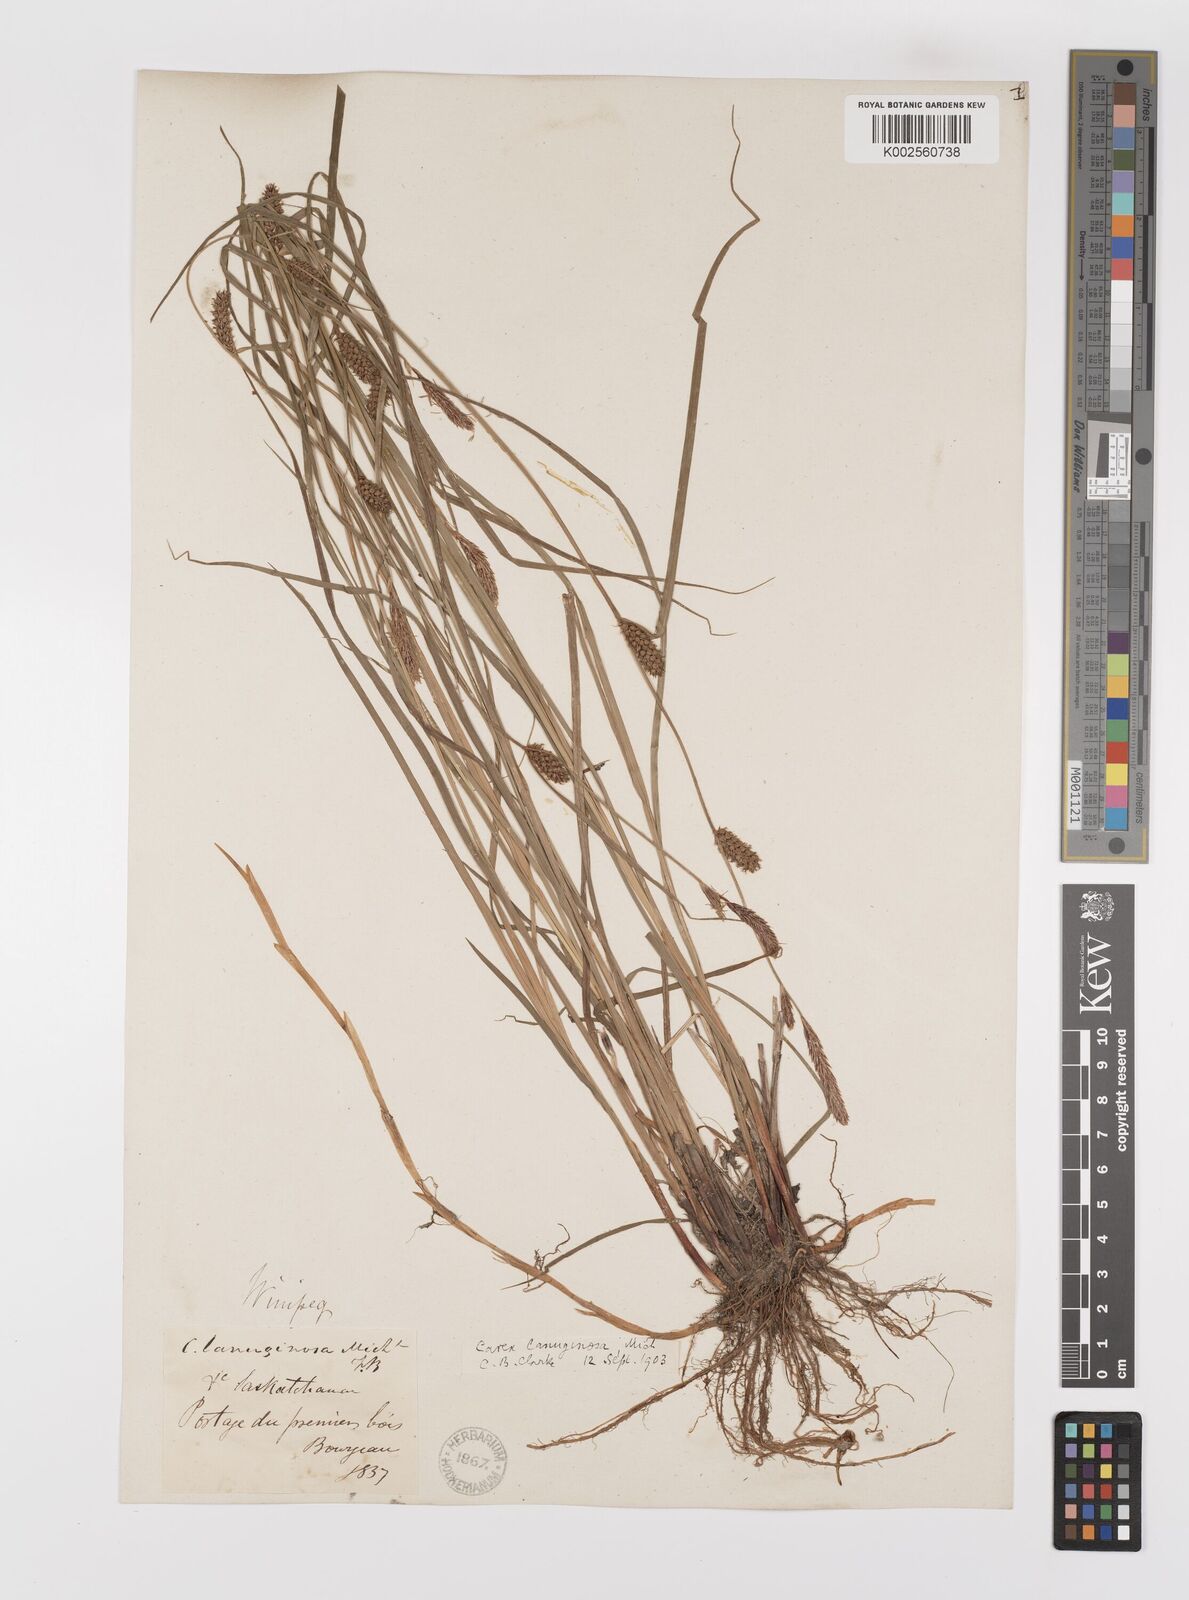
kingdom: Plantae
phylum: Tracheophyta
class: Liliopsida
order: Poales
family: Cyperaceae
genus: Carex
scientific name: Carex lasiocarpa
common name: Slender sedge
